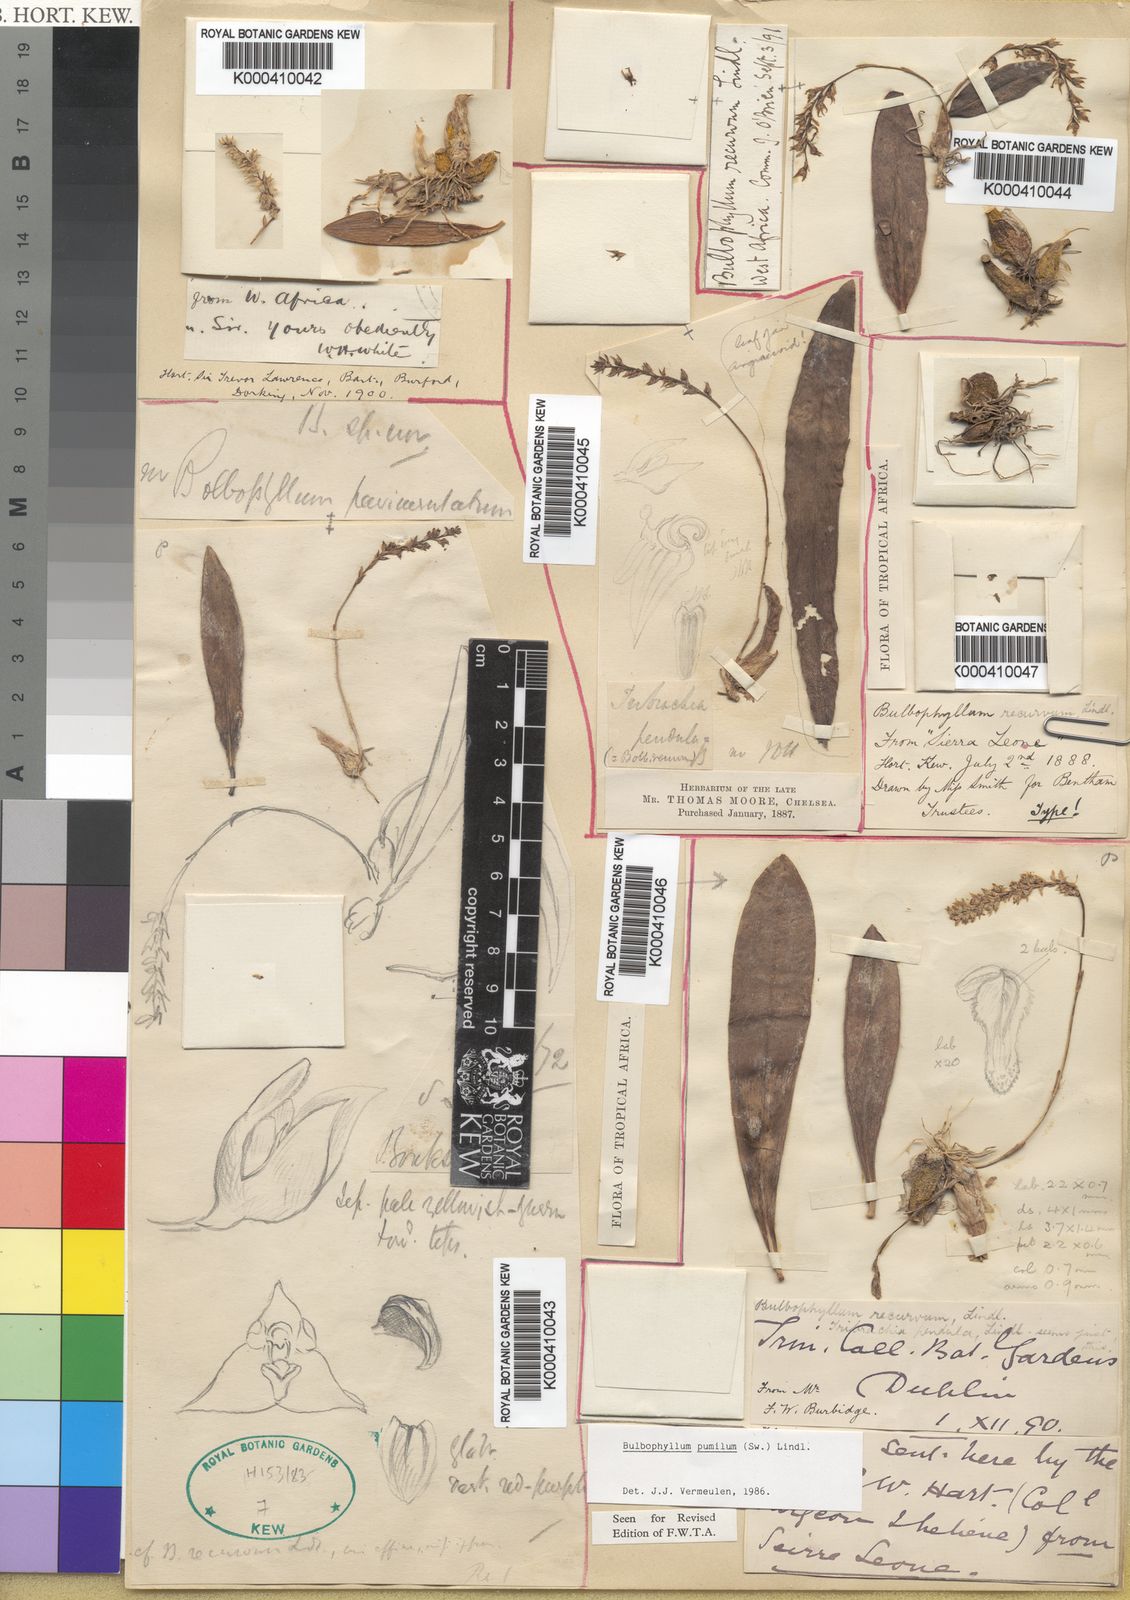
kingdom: Plantae
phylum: Tracheophyta
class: Liliopsida
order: Asparagales
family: Orchidaceae
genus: Bulbophyllum
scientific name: Bulbophyllum pumilum
